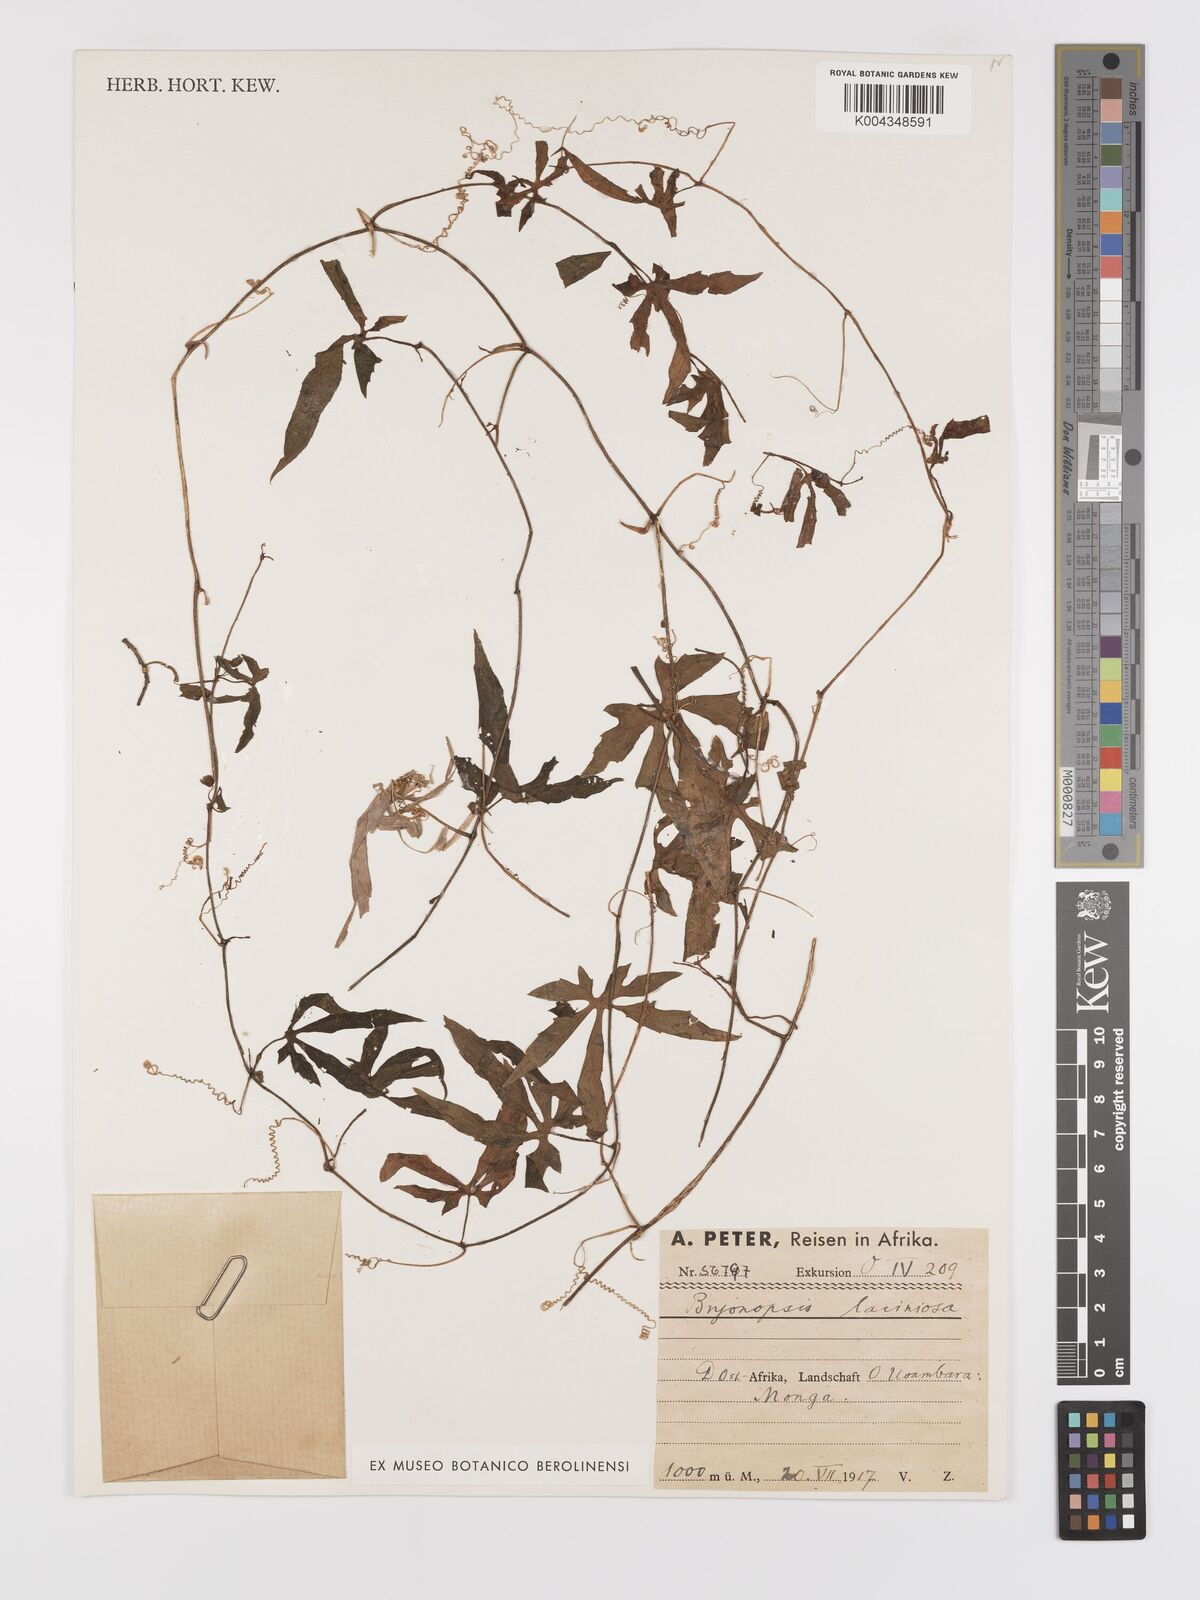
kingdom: Plantae
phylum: Tracheophyta
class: Magnoliopsida
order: Cucurbitales
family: Cucurbitaceae
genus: Diplocyclos
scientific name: Diplocyclos palmatus
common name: Striped-cucumber
